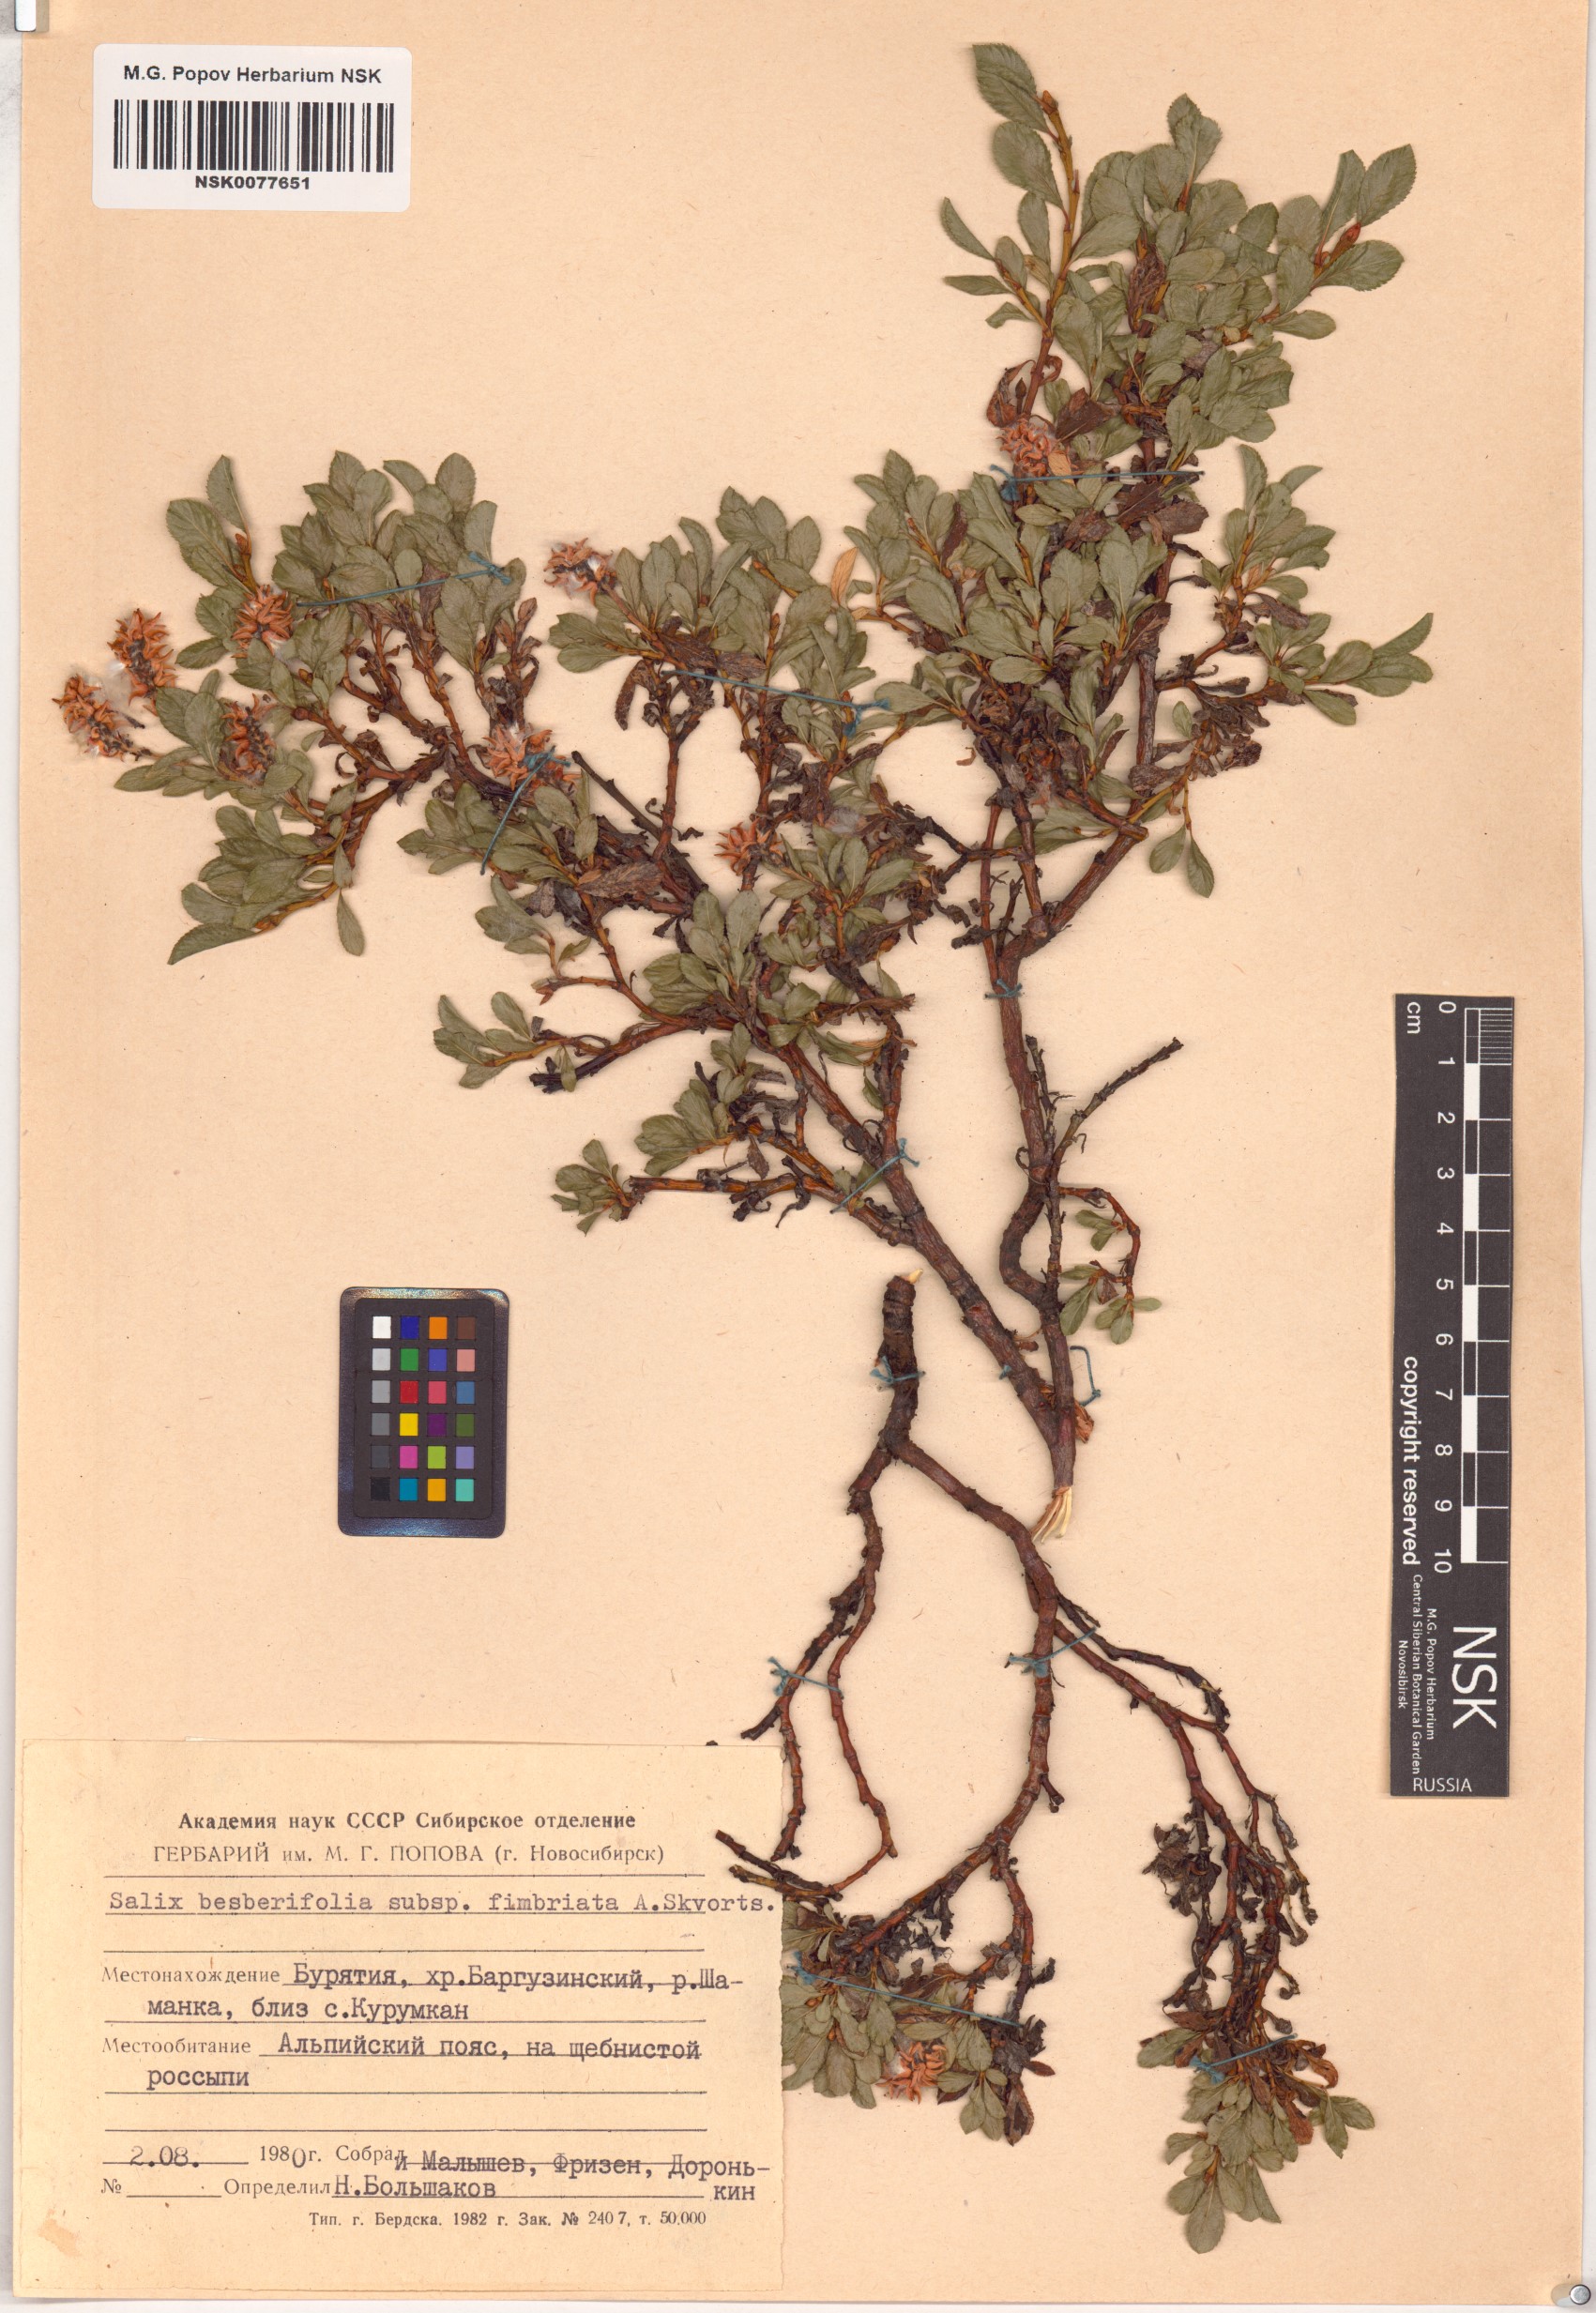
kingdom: Plantae
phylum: Tracheophyta
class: Magnoliopsida
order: Malpighiales
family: Salicaceae
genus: Salix
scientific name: Salix berberifolia
